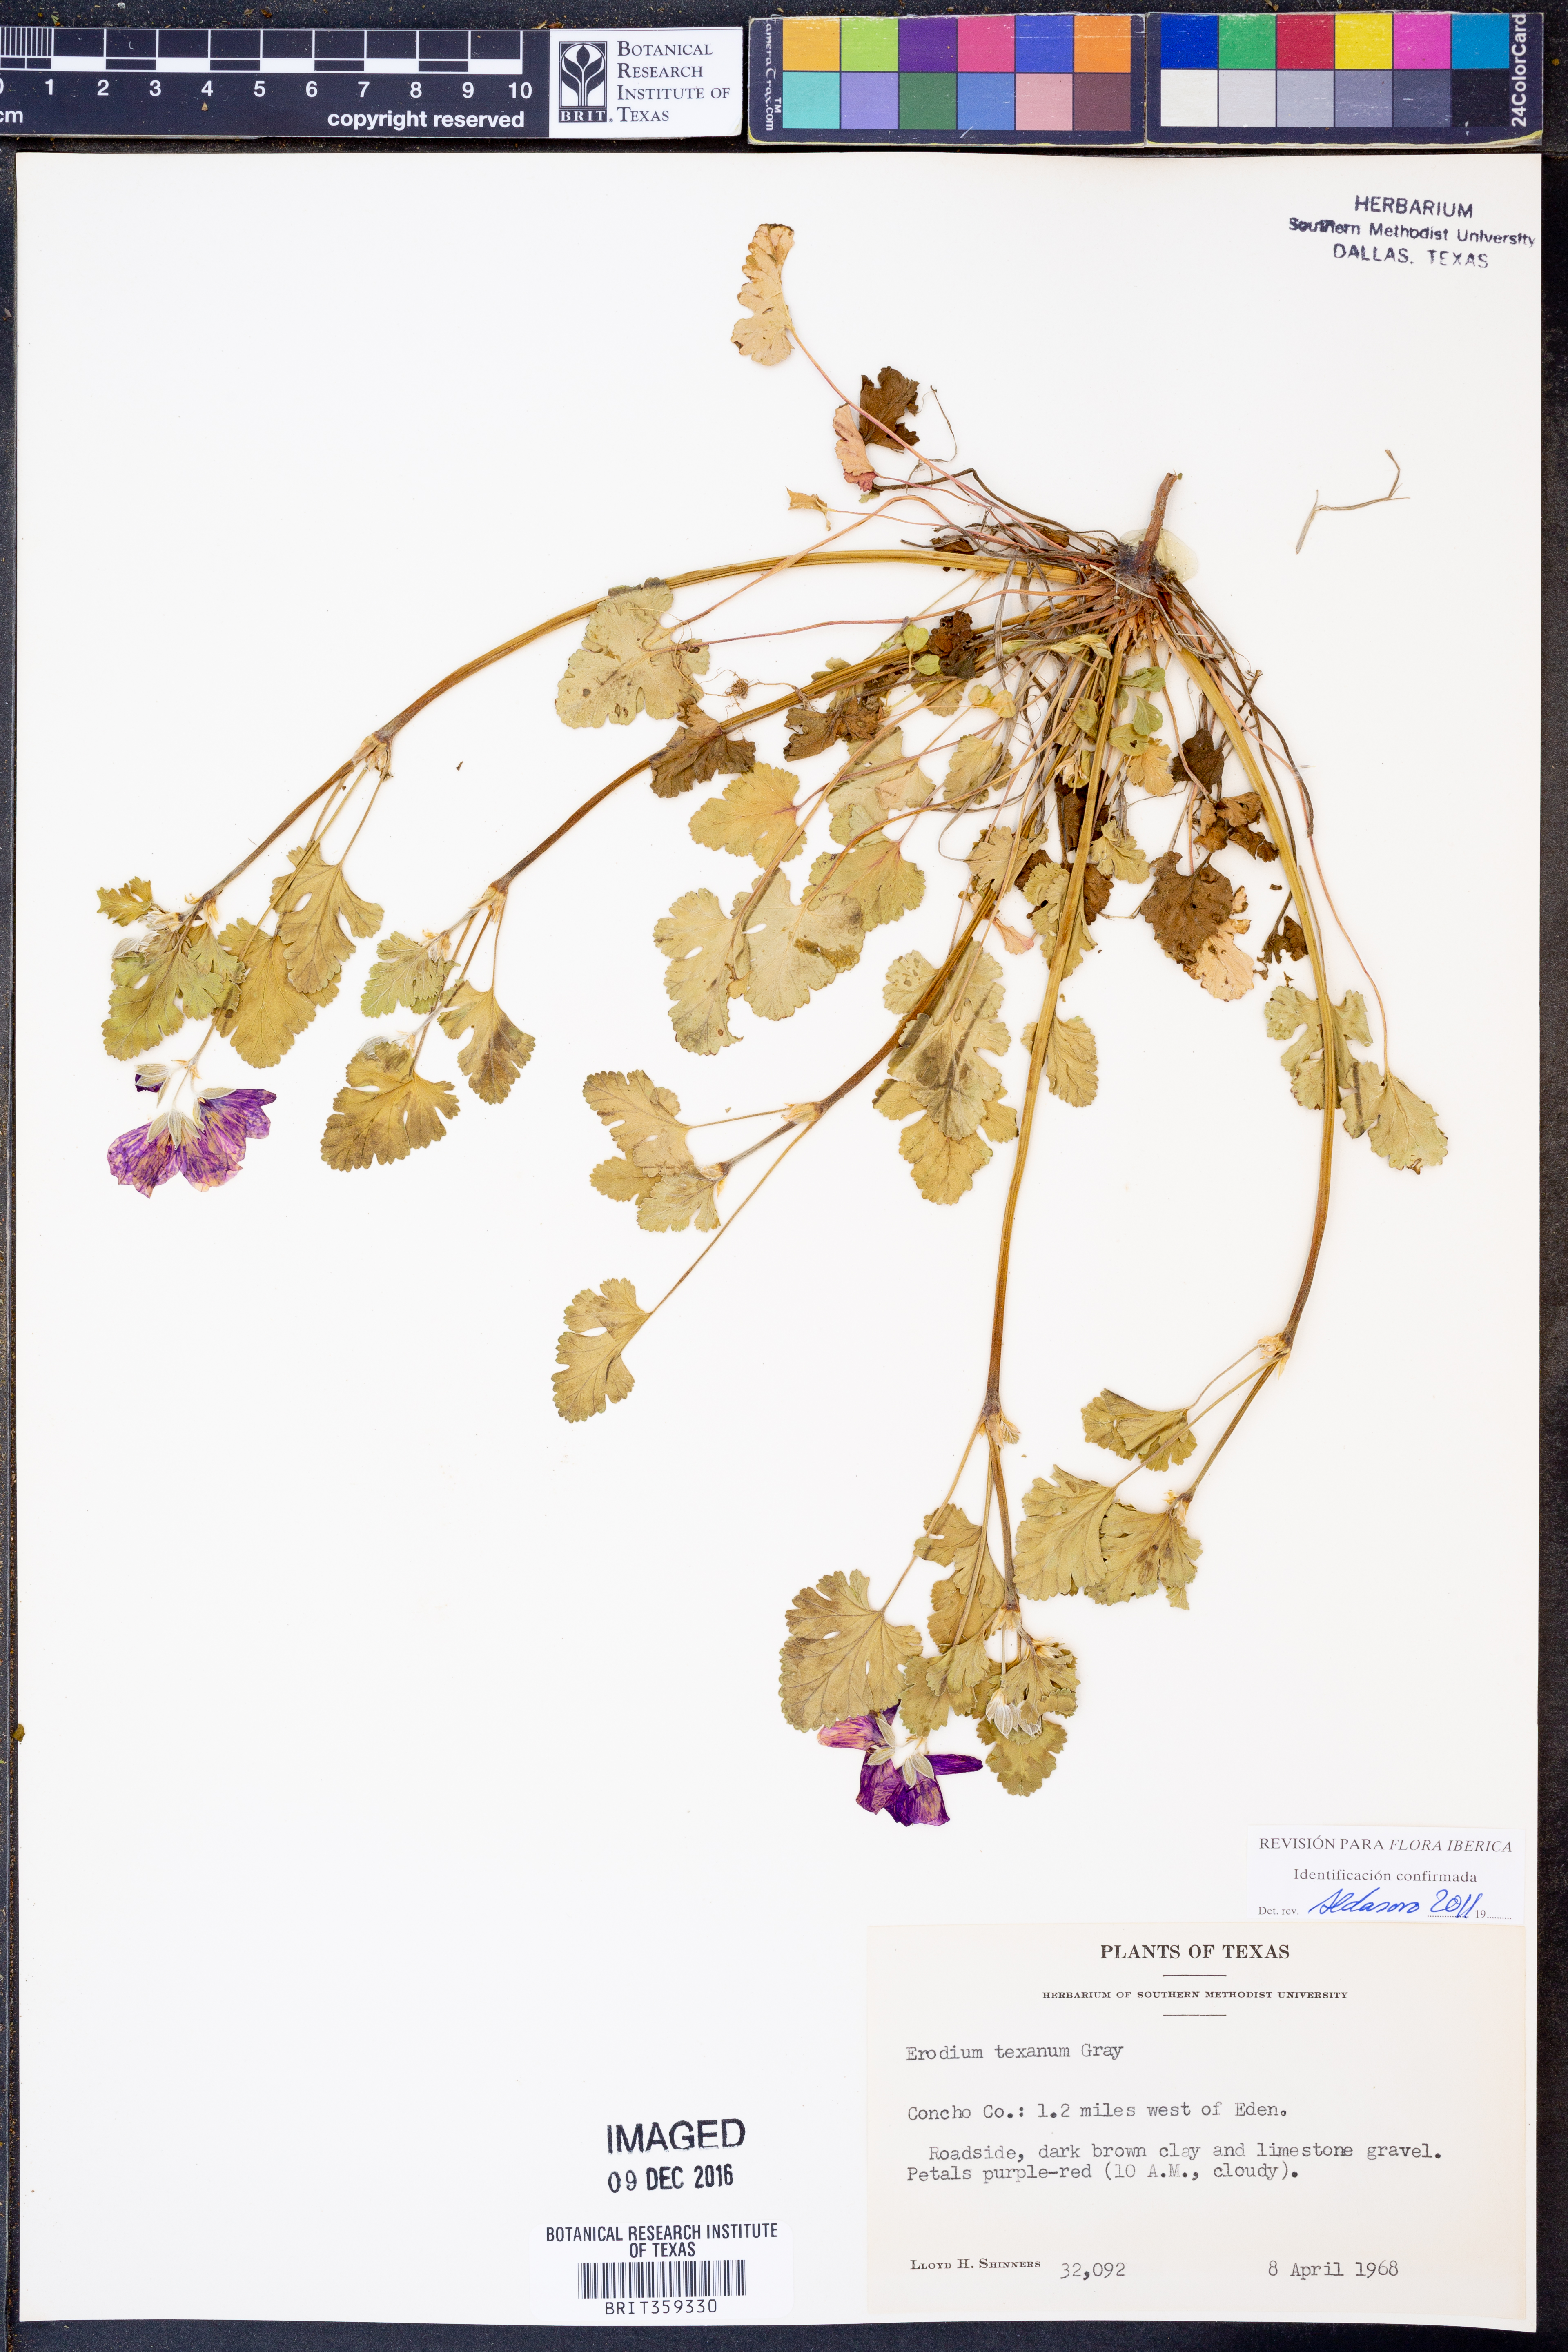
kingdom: Plantae
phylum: Tracheophyta
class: Magnoliopsida
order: Geraniales
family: Geraniaceae
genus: Erodium
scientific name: Erodium texanum
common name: Texas stork's-bill
